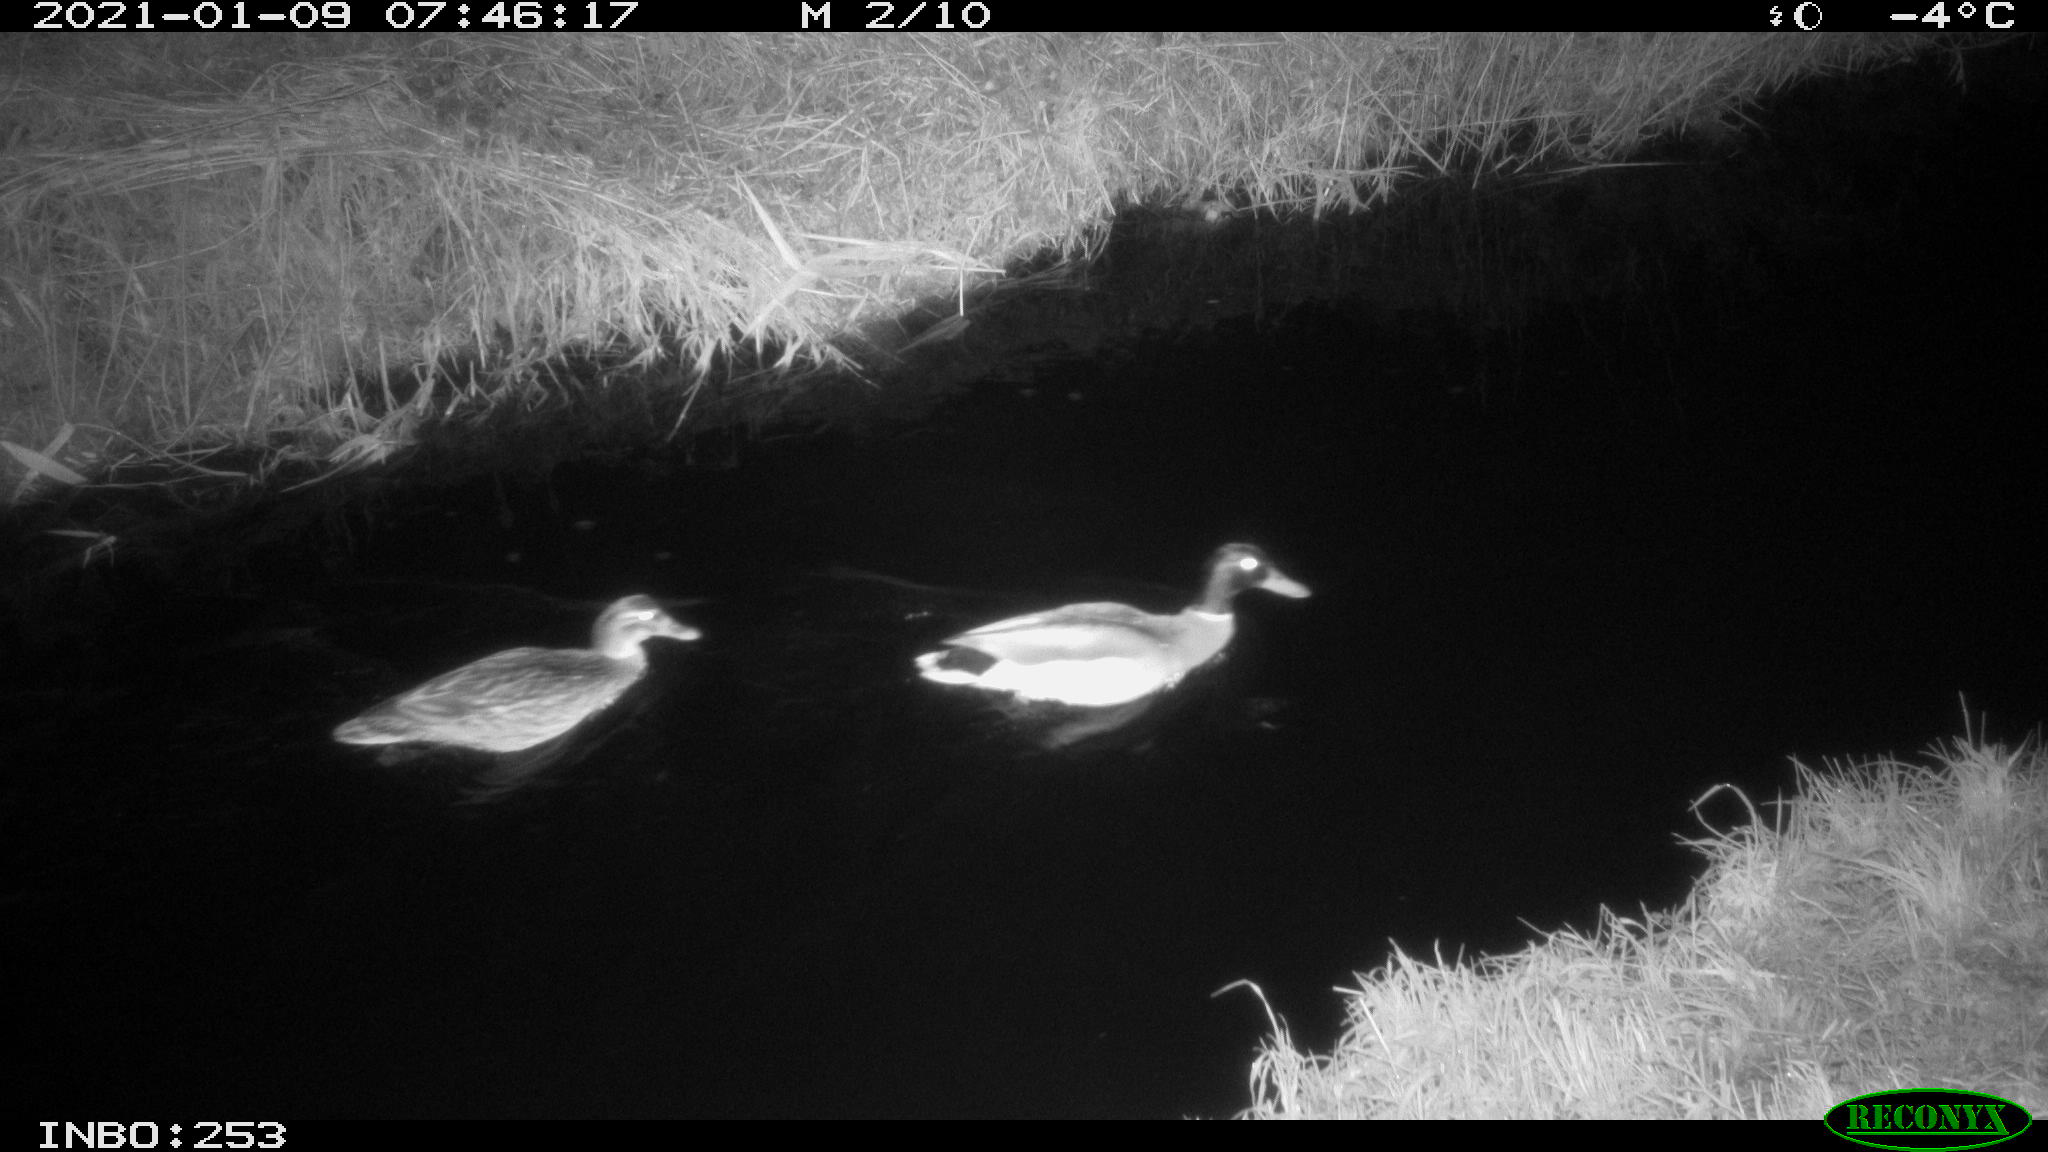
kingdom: Animalia
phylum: Chordata
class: Aves
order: Anseriformes
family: Anatidae
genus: Anas
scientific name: Anas platyrhynchos
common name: Mallard
